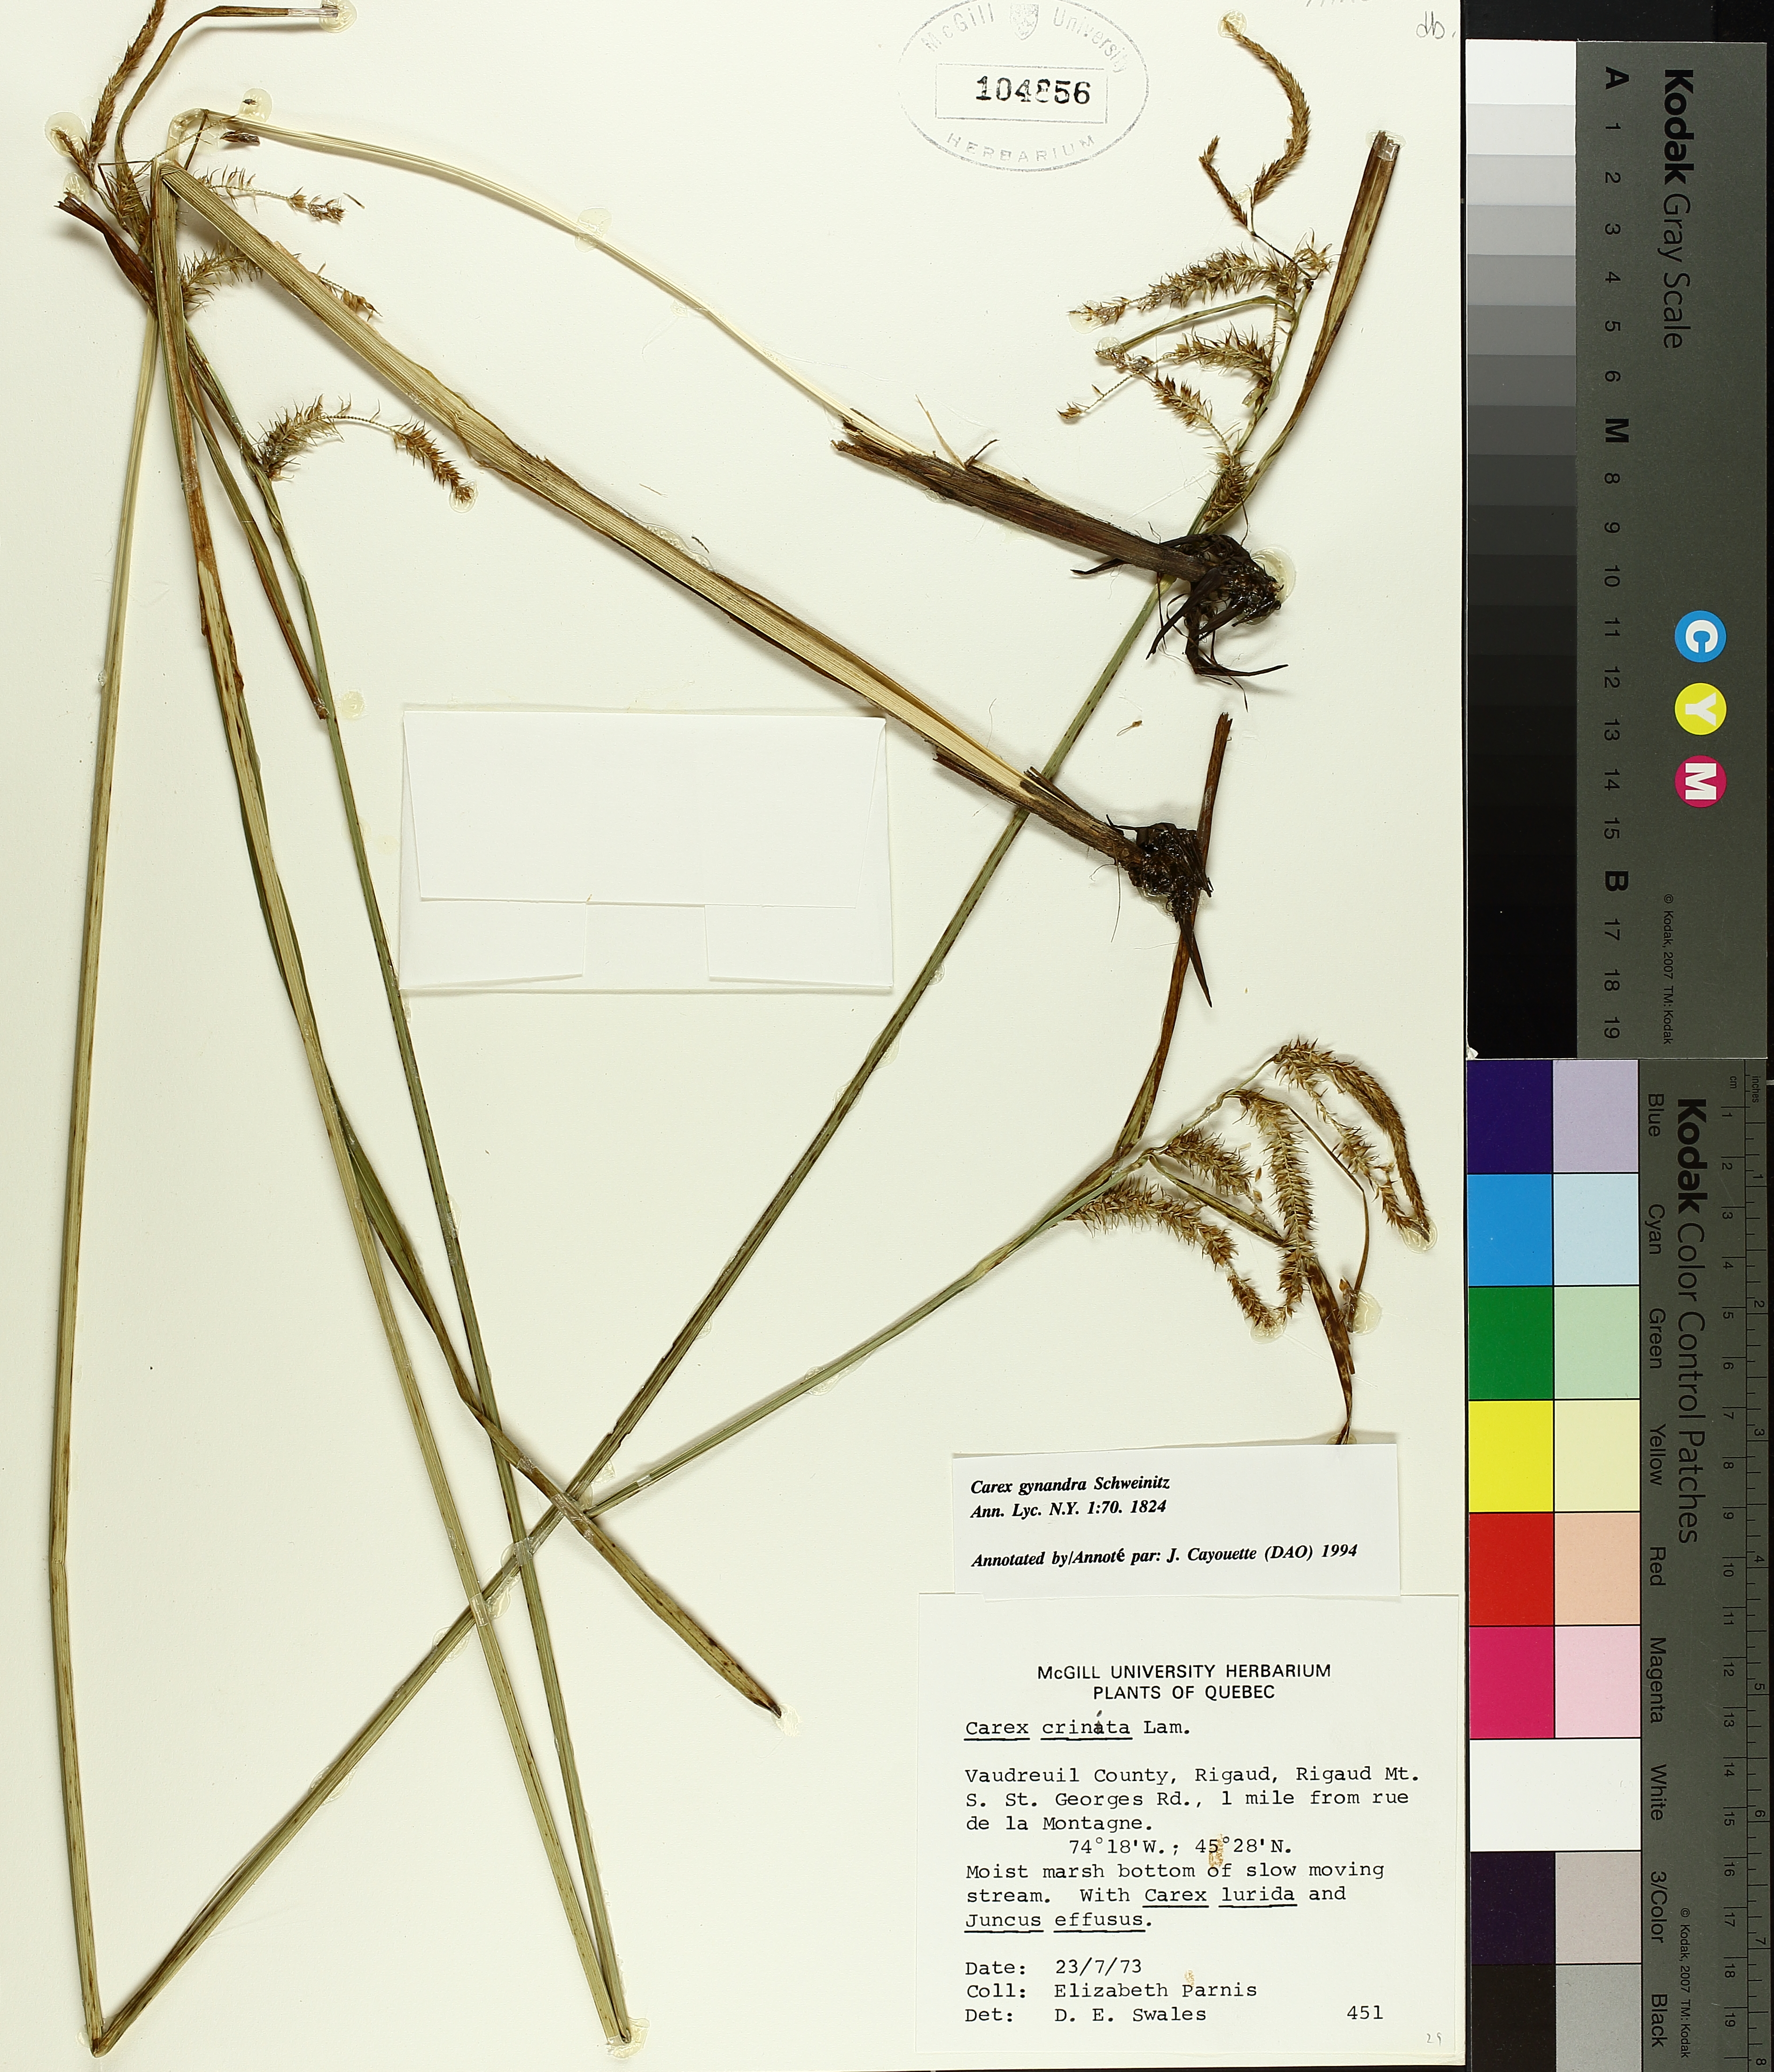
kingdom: Plantae
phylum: Tracheophyta
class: Liliopsida
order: Poales
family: Cyperaceae
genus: Carex
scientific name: Carex gynandra
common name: Nodding sedge
